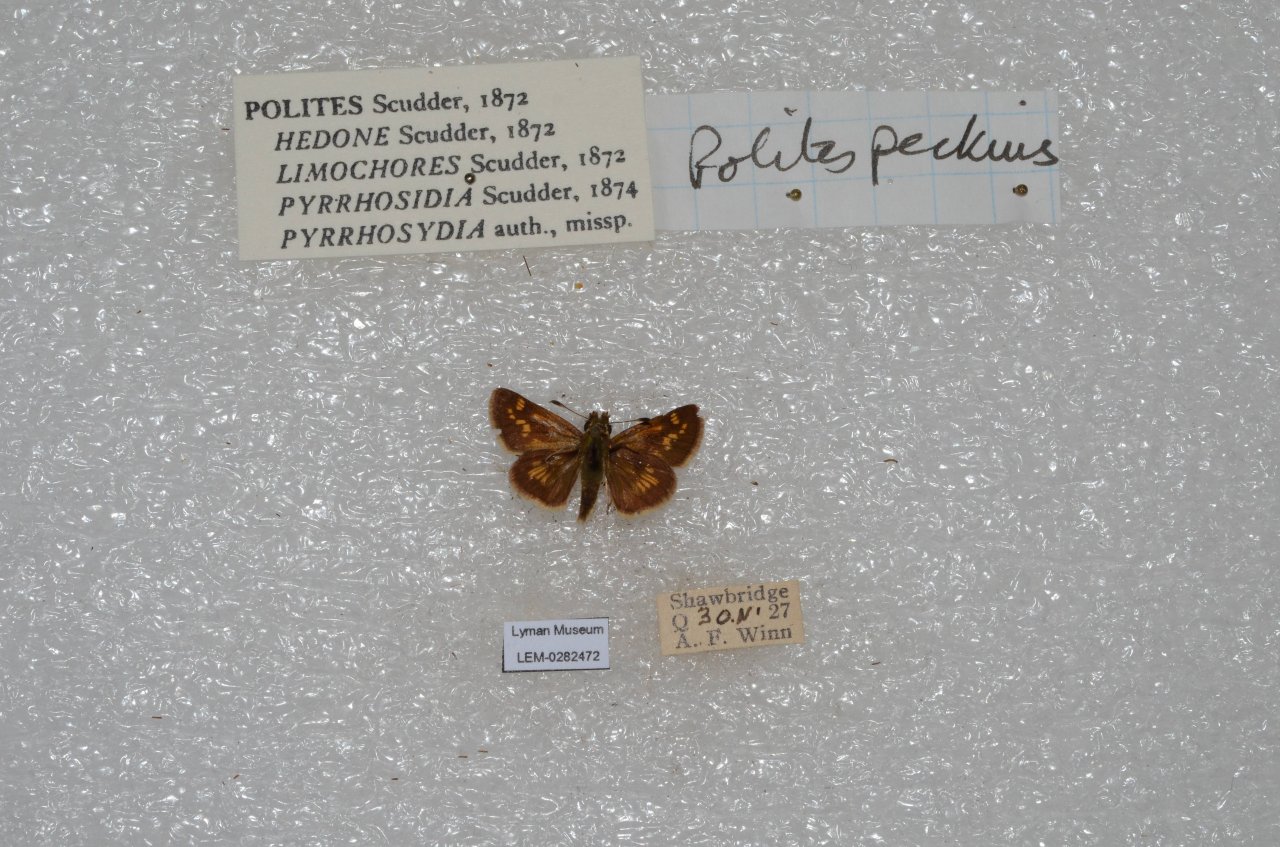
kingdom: Animalia
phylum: Arthropoda
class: Insecta
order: Lepidoptera
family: Hesperiidae
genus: Polites
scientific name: Polites coras
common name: Peck's Skipper
